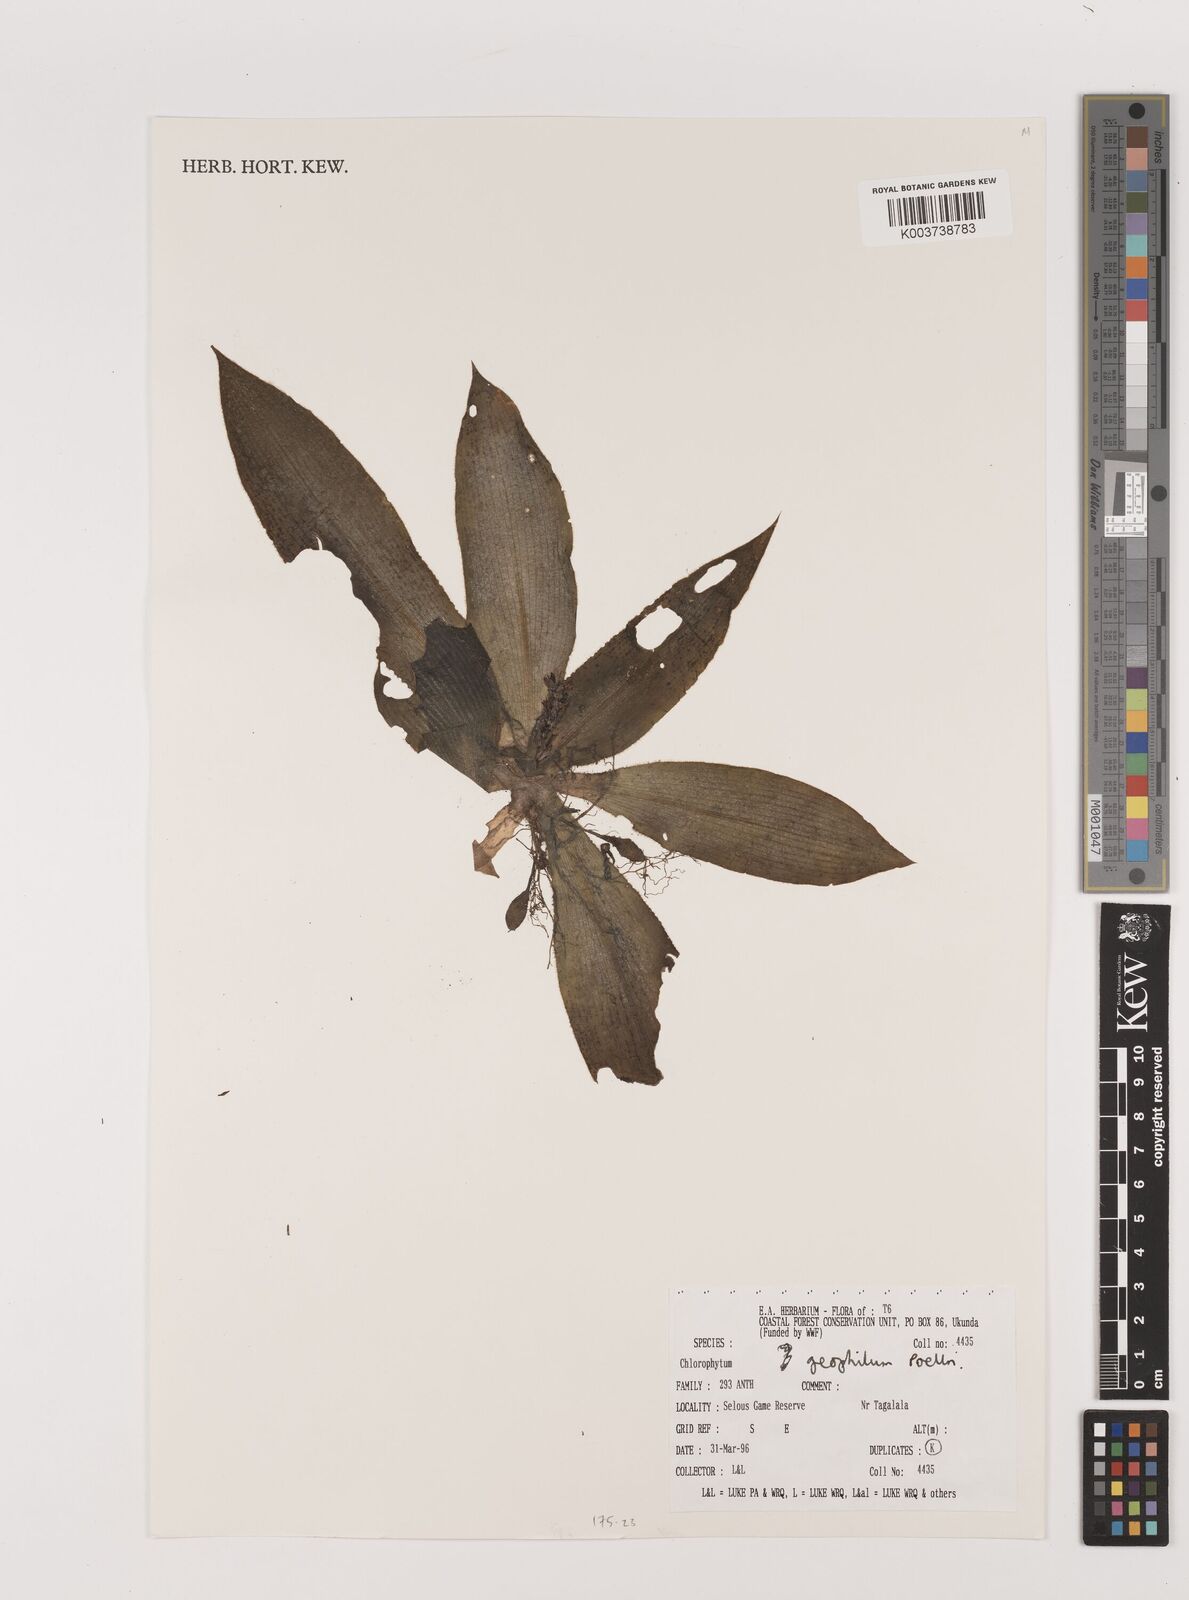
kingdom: Plantae
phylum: Tracheophyta
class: Liliopsida
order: Asparagales
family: Asparagaceae
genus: Chlorophytum
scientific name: Chlorophytum geophilum
